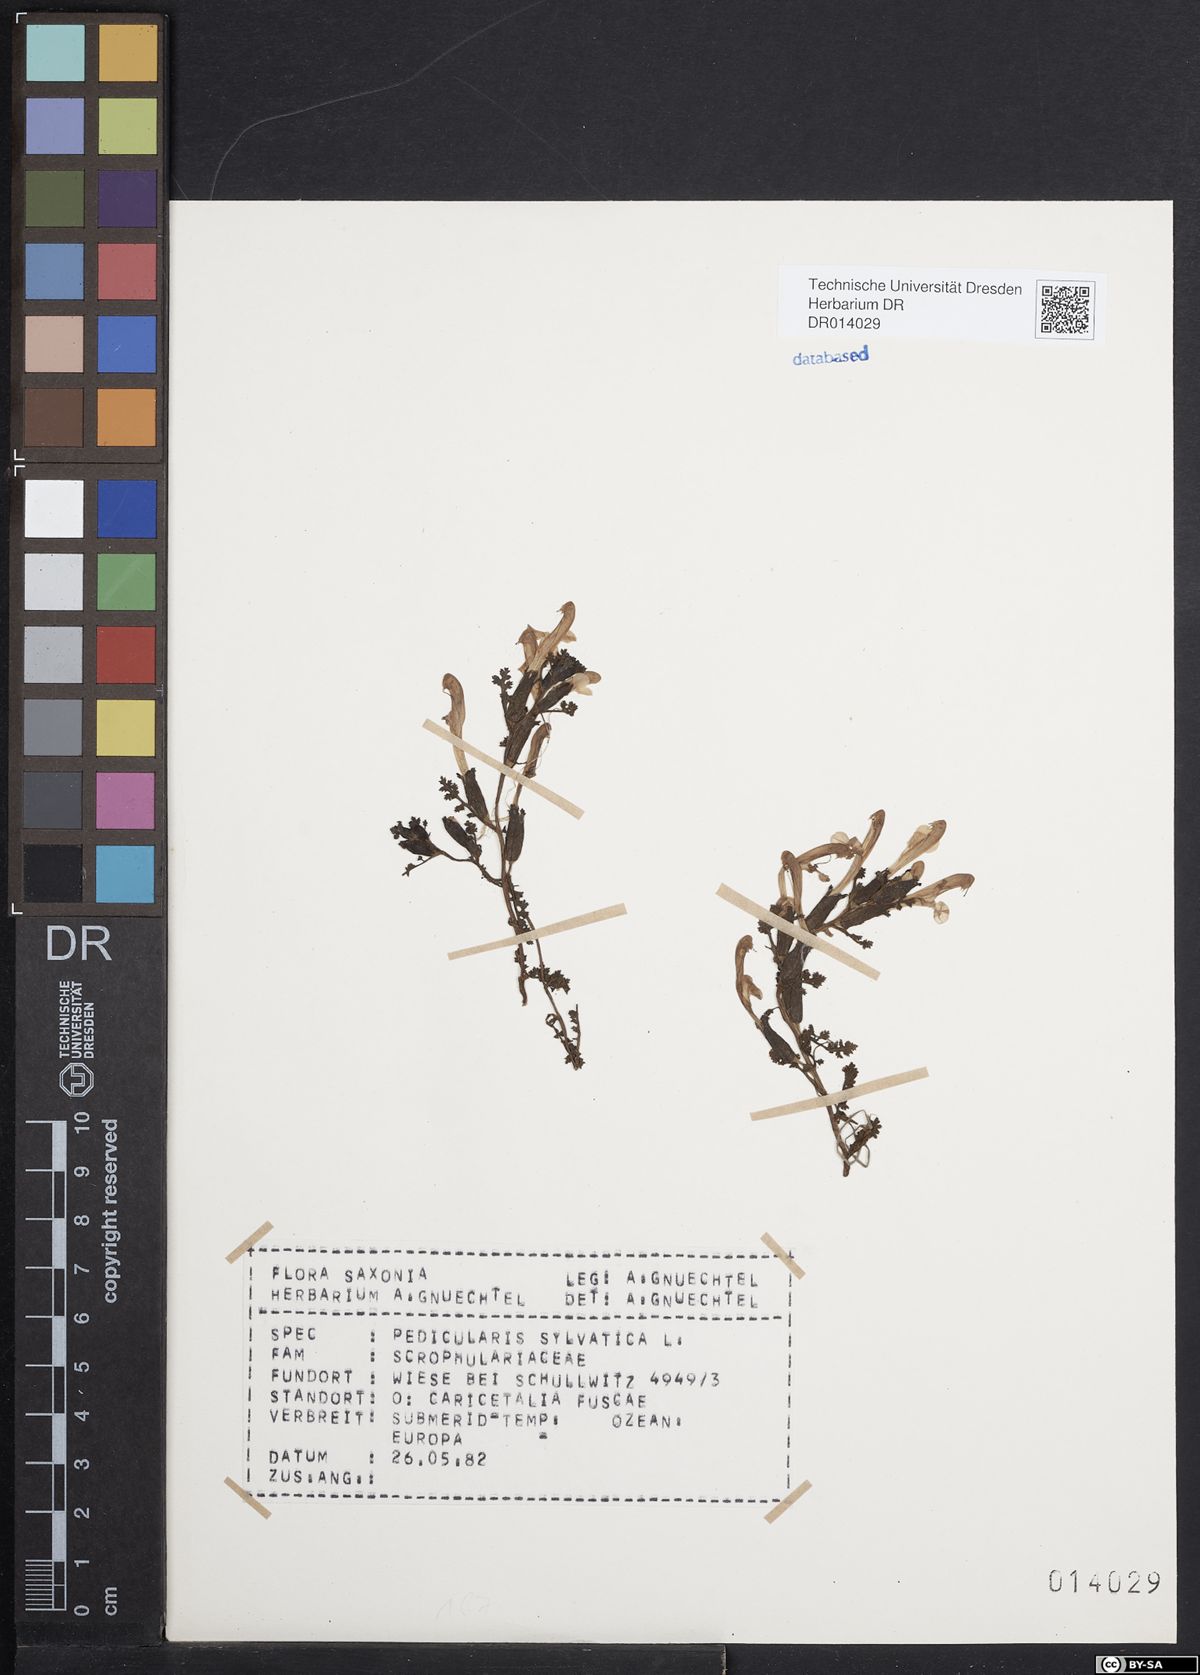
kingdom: Plantae
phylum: Tracheophyta
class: Magnoliopsida
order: Lamiales
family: Orobanchaceae
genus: Pedicularis
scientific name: Pedicularis sylvatica
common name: Lousewort
